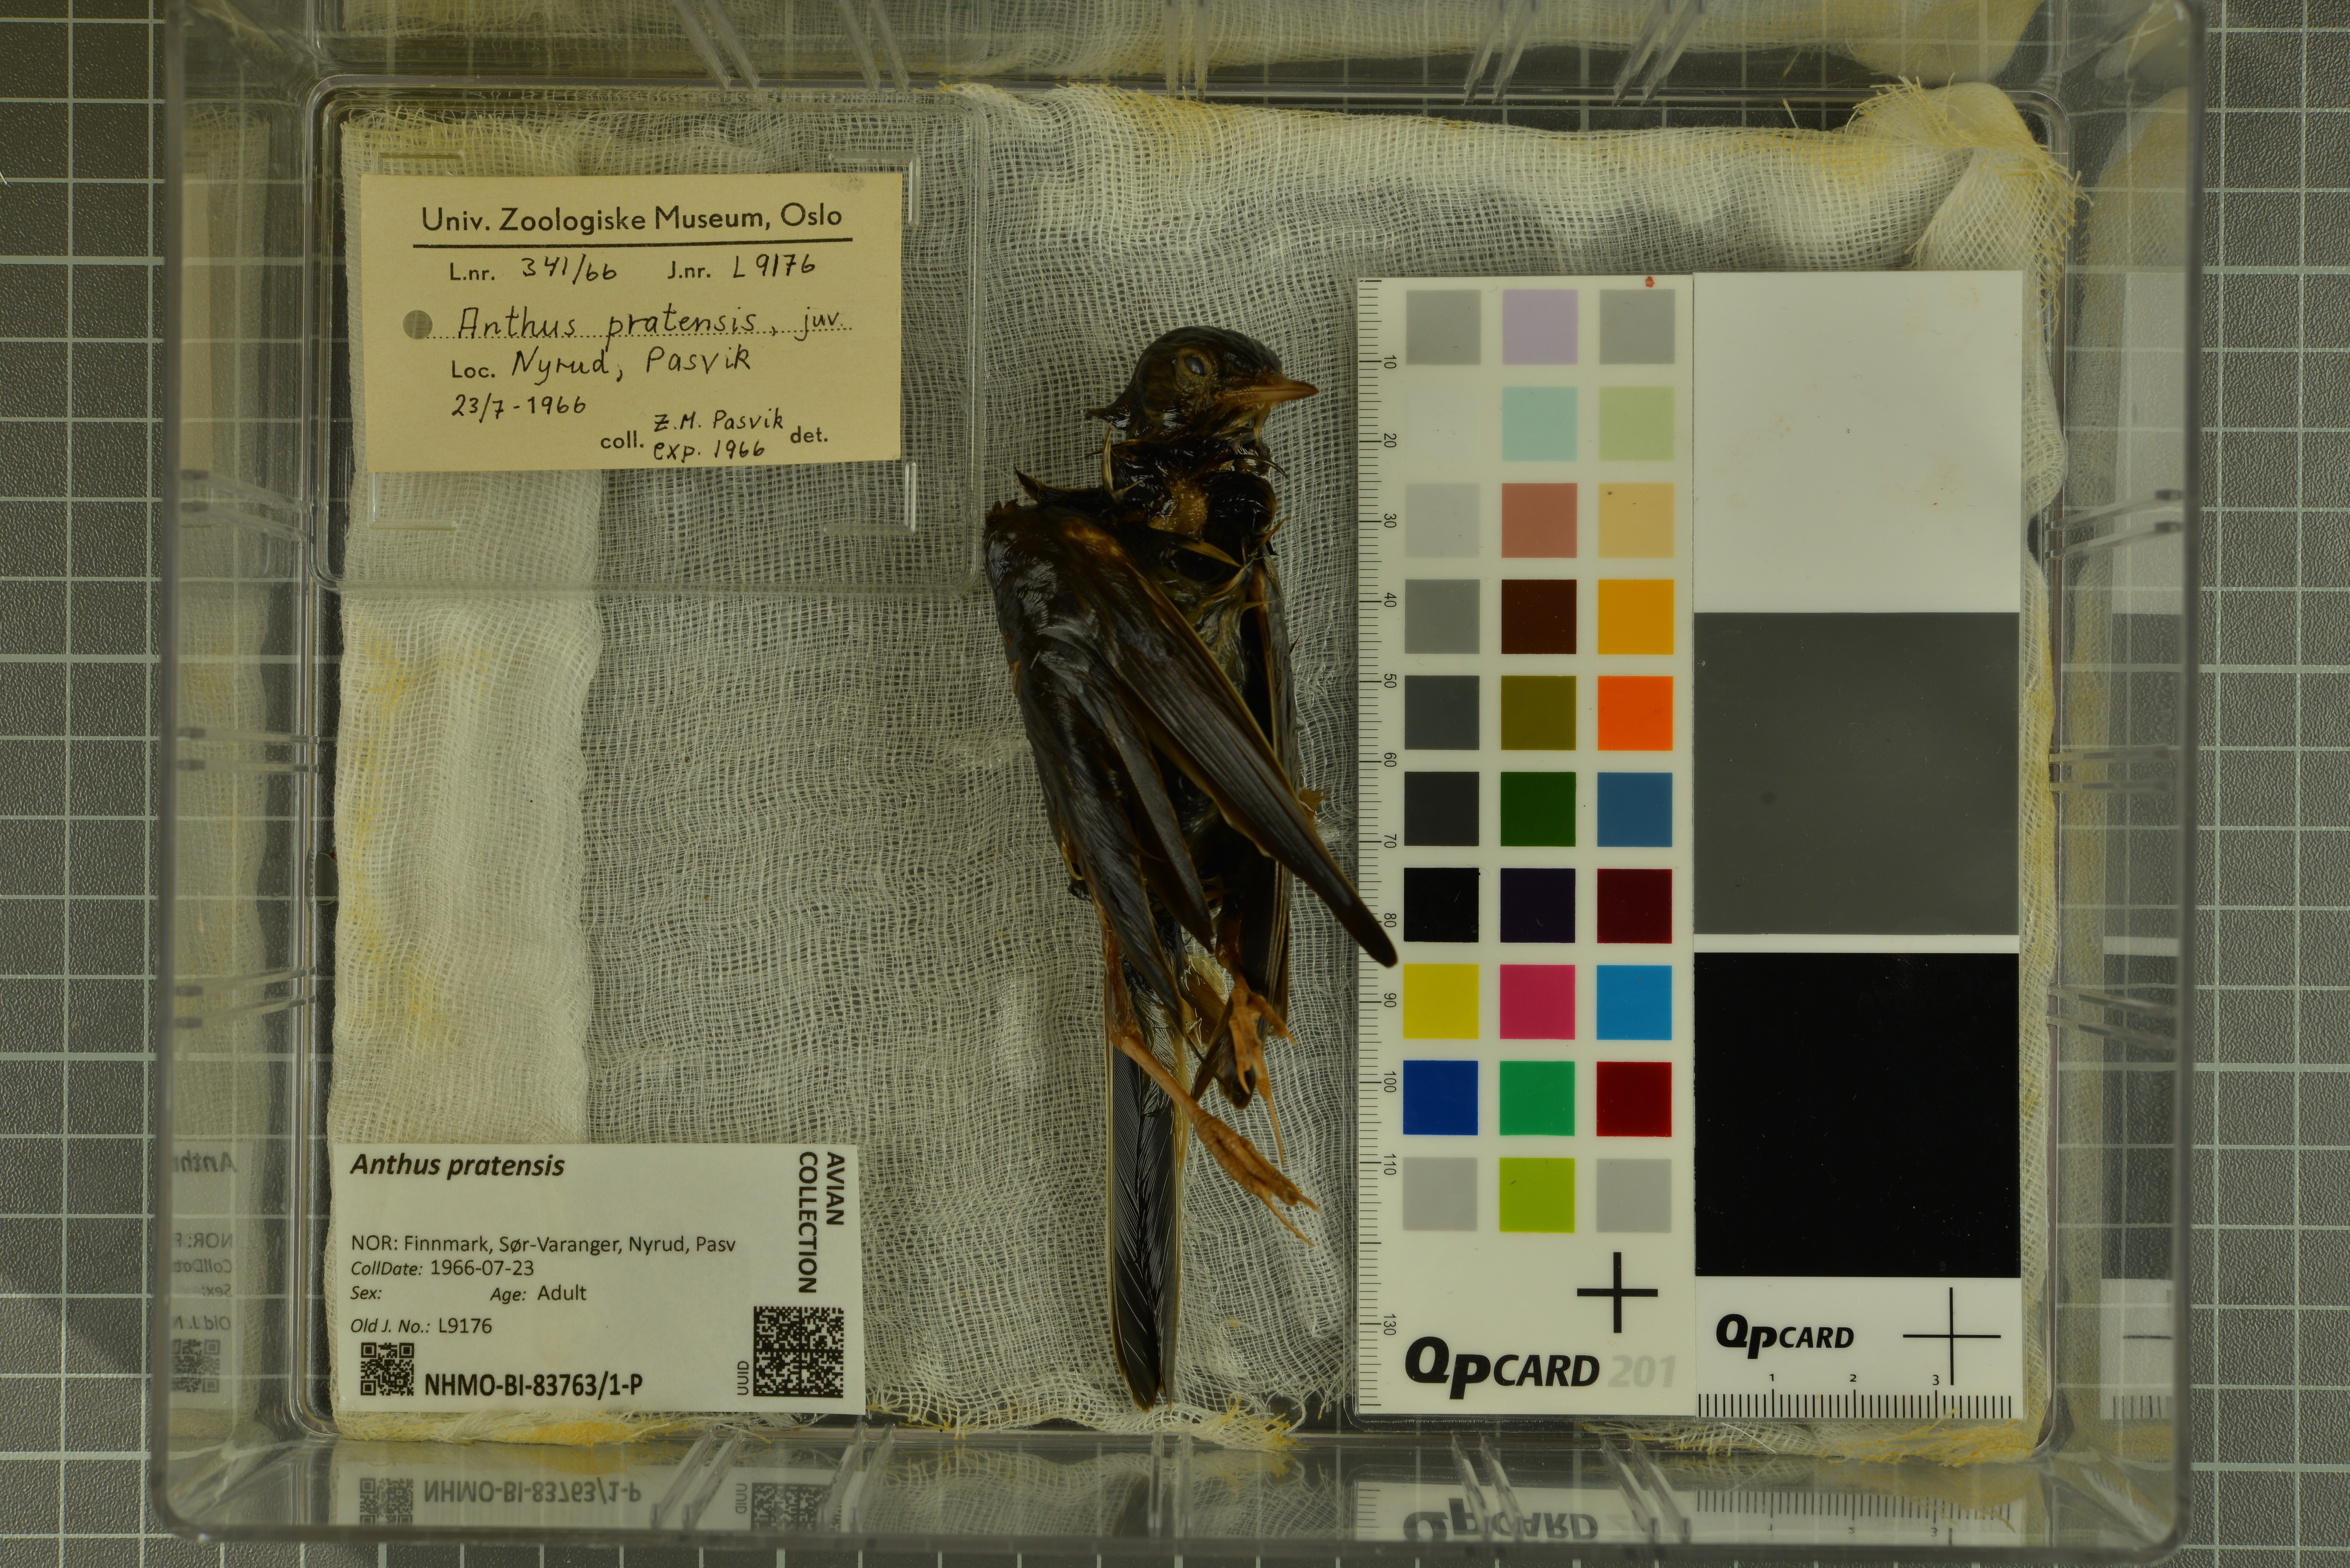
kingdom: Animalia
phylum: Chordata
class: Aves
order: Passeriformes
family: Motacillidae
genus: Anthus
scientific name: Anthus pratensis
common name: Meadow pipit
